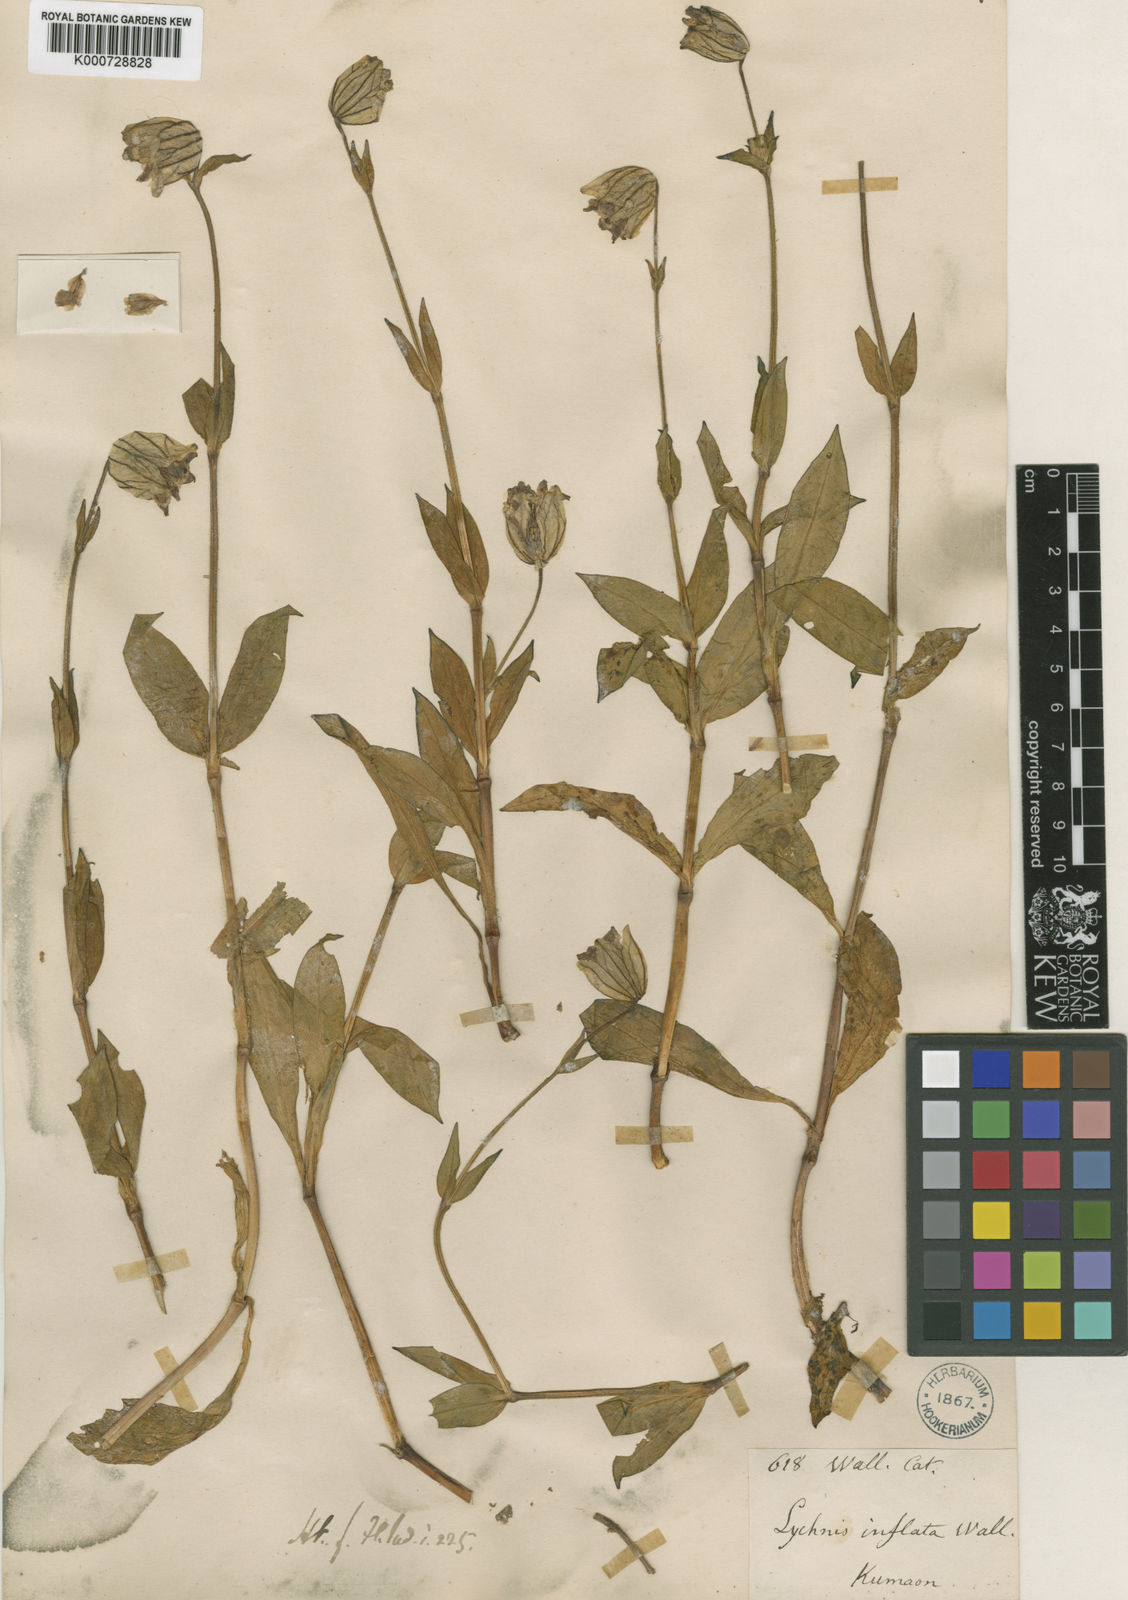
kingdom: Plantae
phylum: Tracheophyta
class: Magnoliopsida
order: Caryophyllales
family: Caryophyllaceae
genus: Silene
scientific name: Silene
